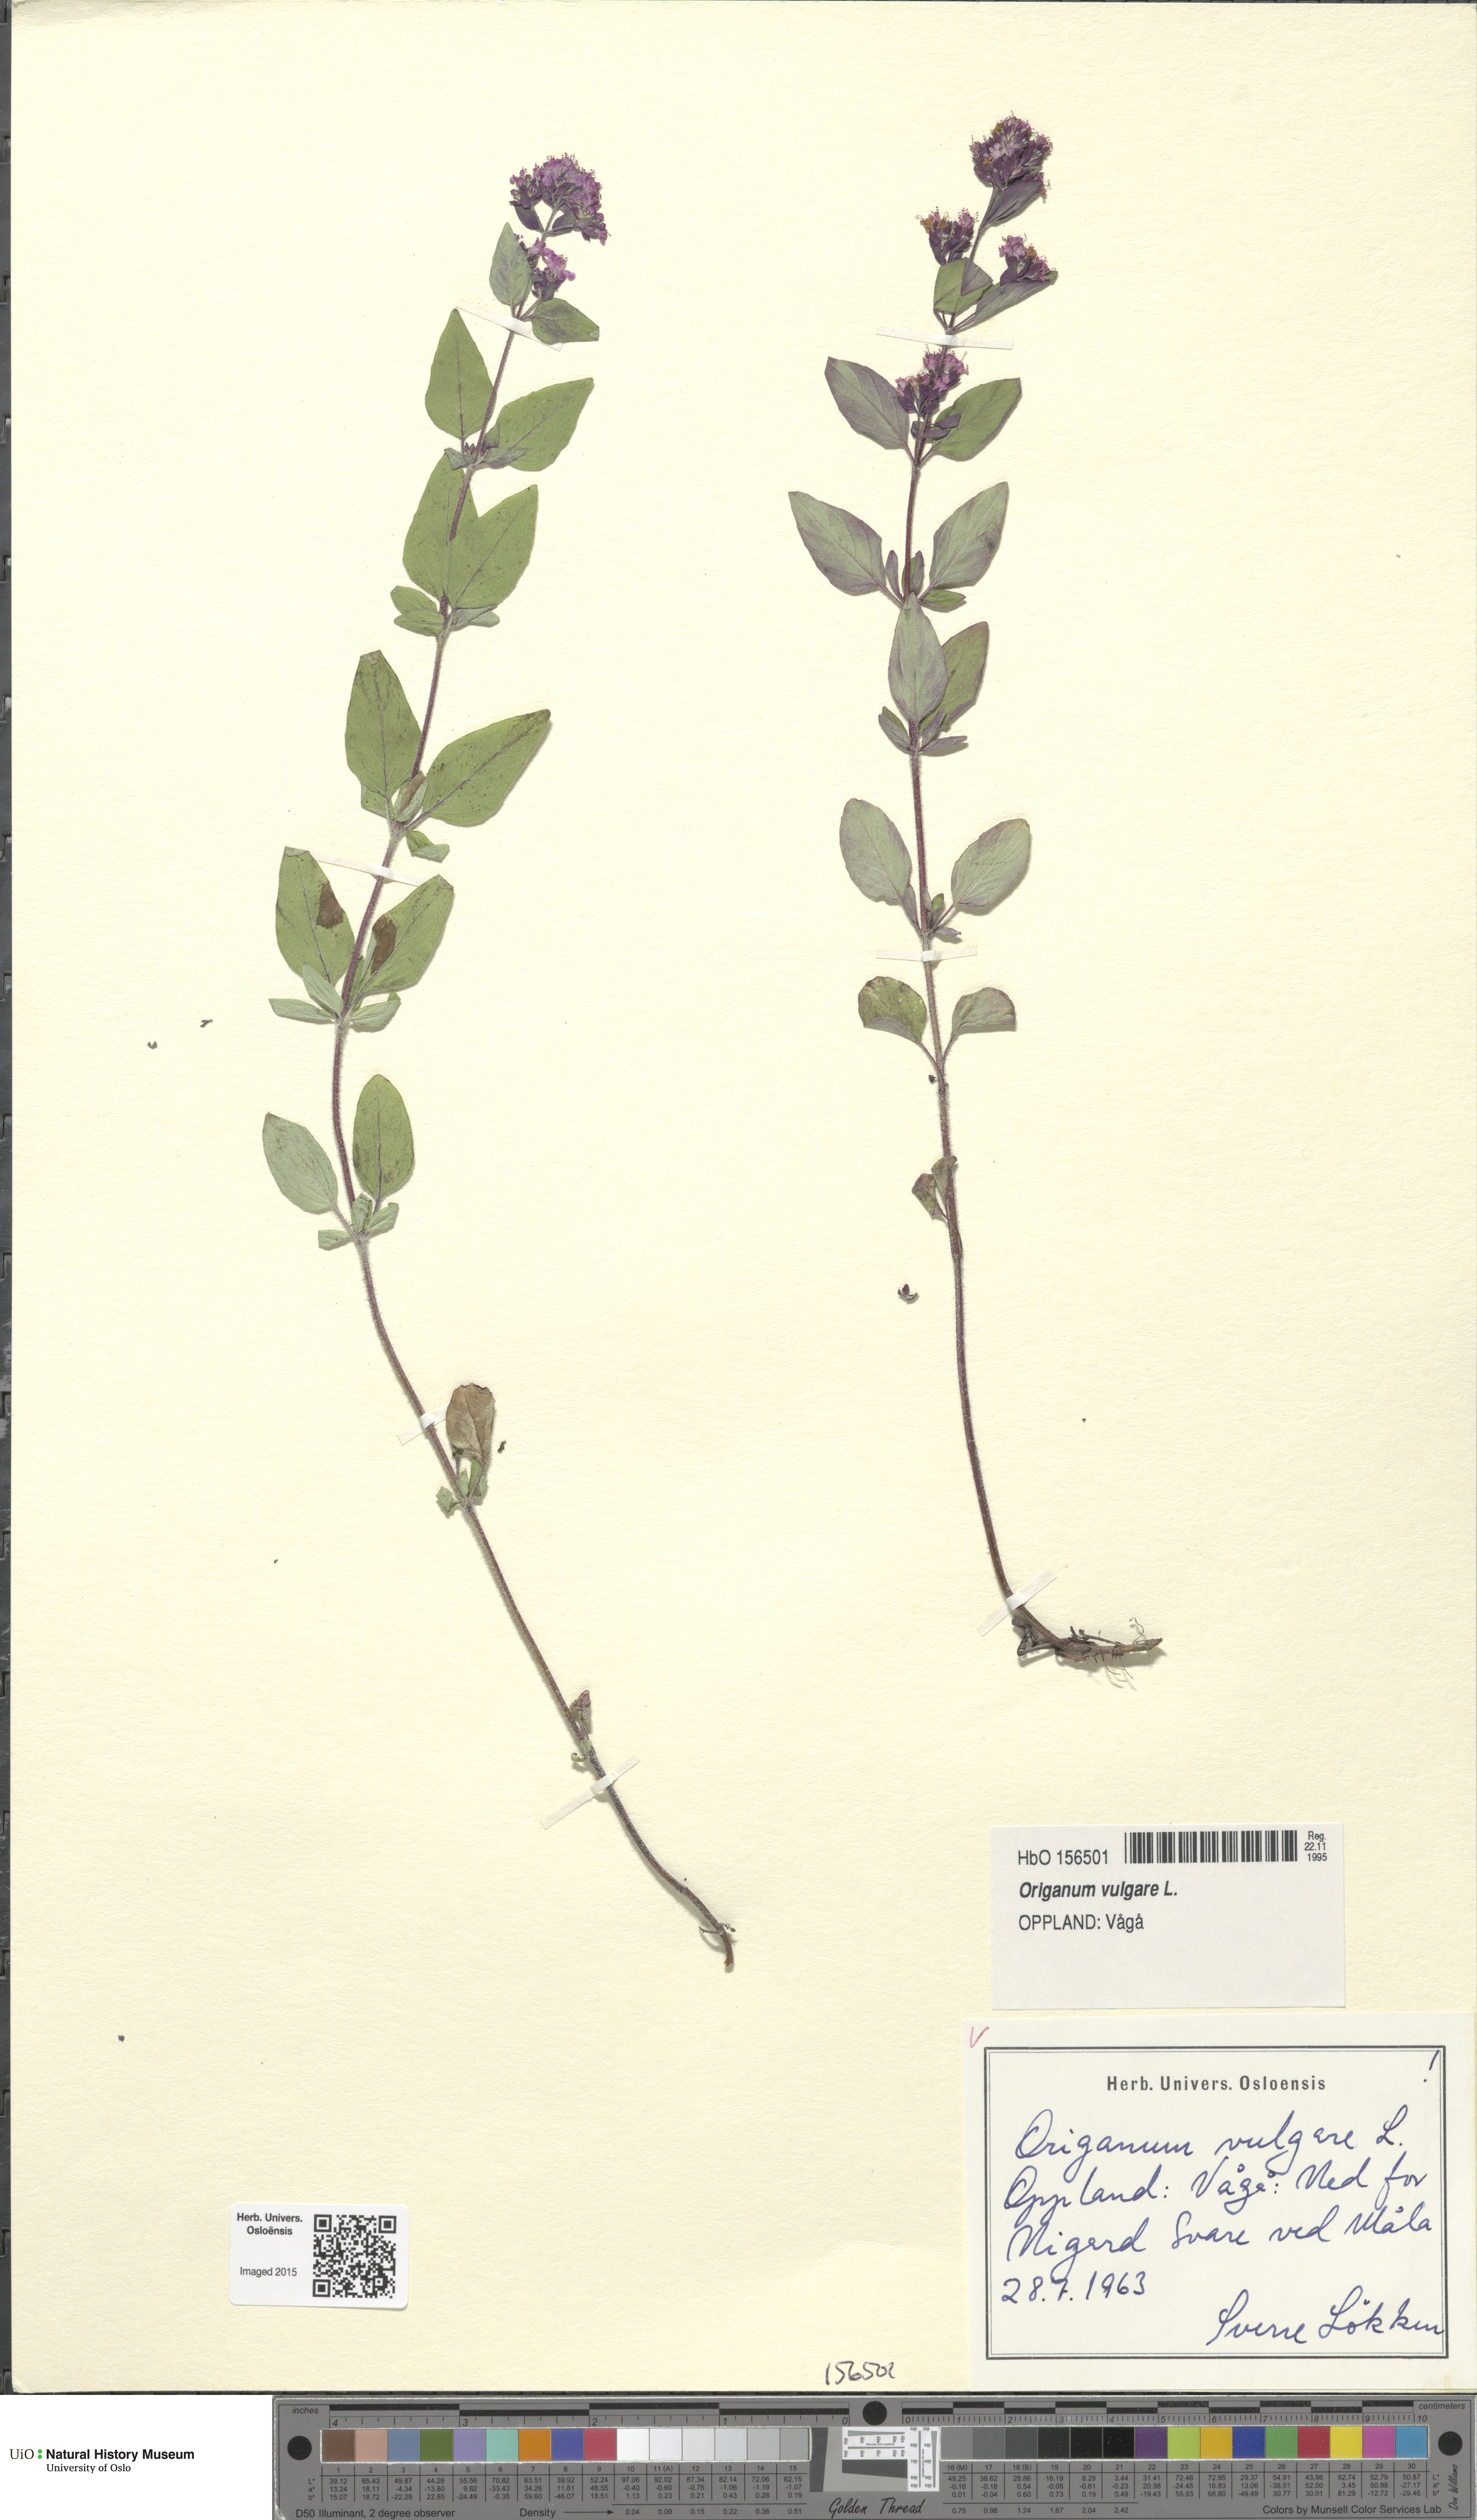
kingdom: Plantae
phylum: Tracheophyta
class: Magnoliopsida
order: Lamiales
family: Lamiaceae
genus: Origanum
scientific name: Origanum vulgare
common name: Wild marjoram
